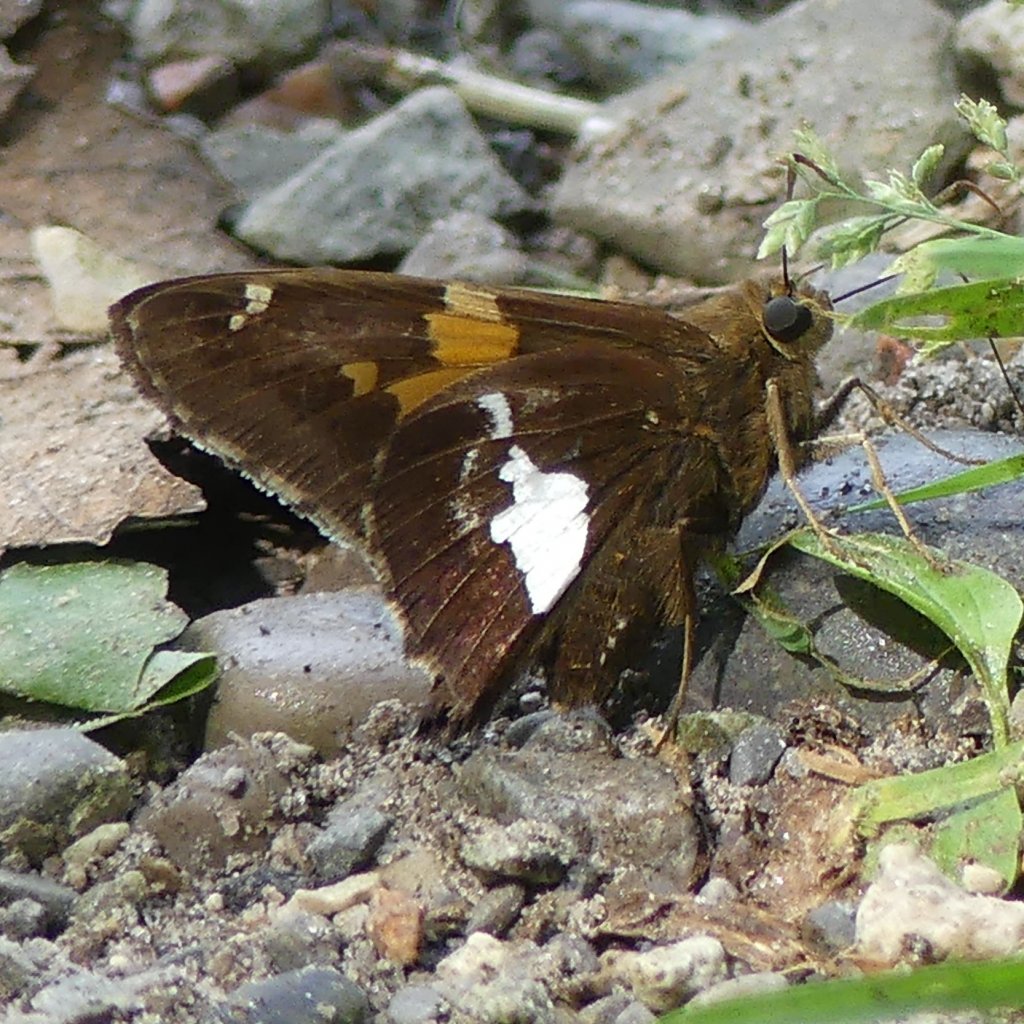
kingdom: Animalia
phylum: Arthropoda
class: Insecta
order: Lepidoptera
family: Hesperiidae
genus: Epargyreus
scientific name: Epargyreus clarus
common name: Silver-spotted Skipper
